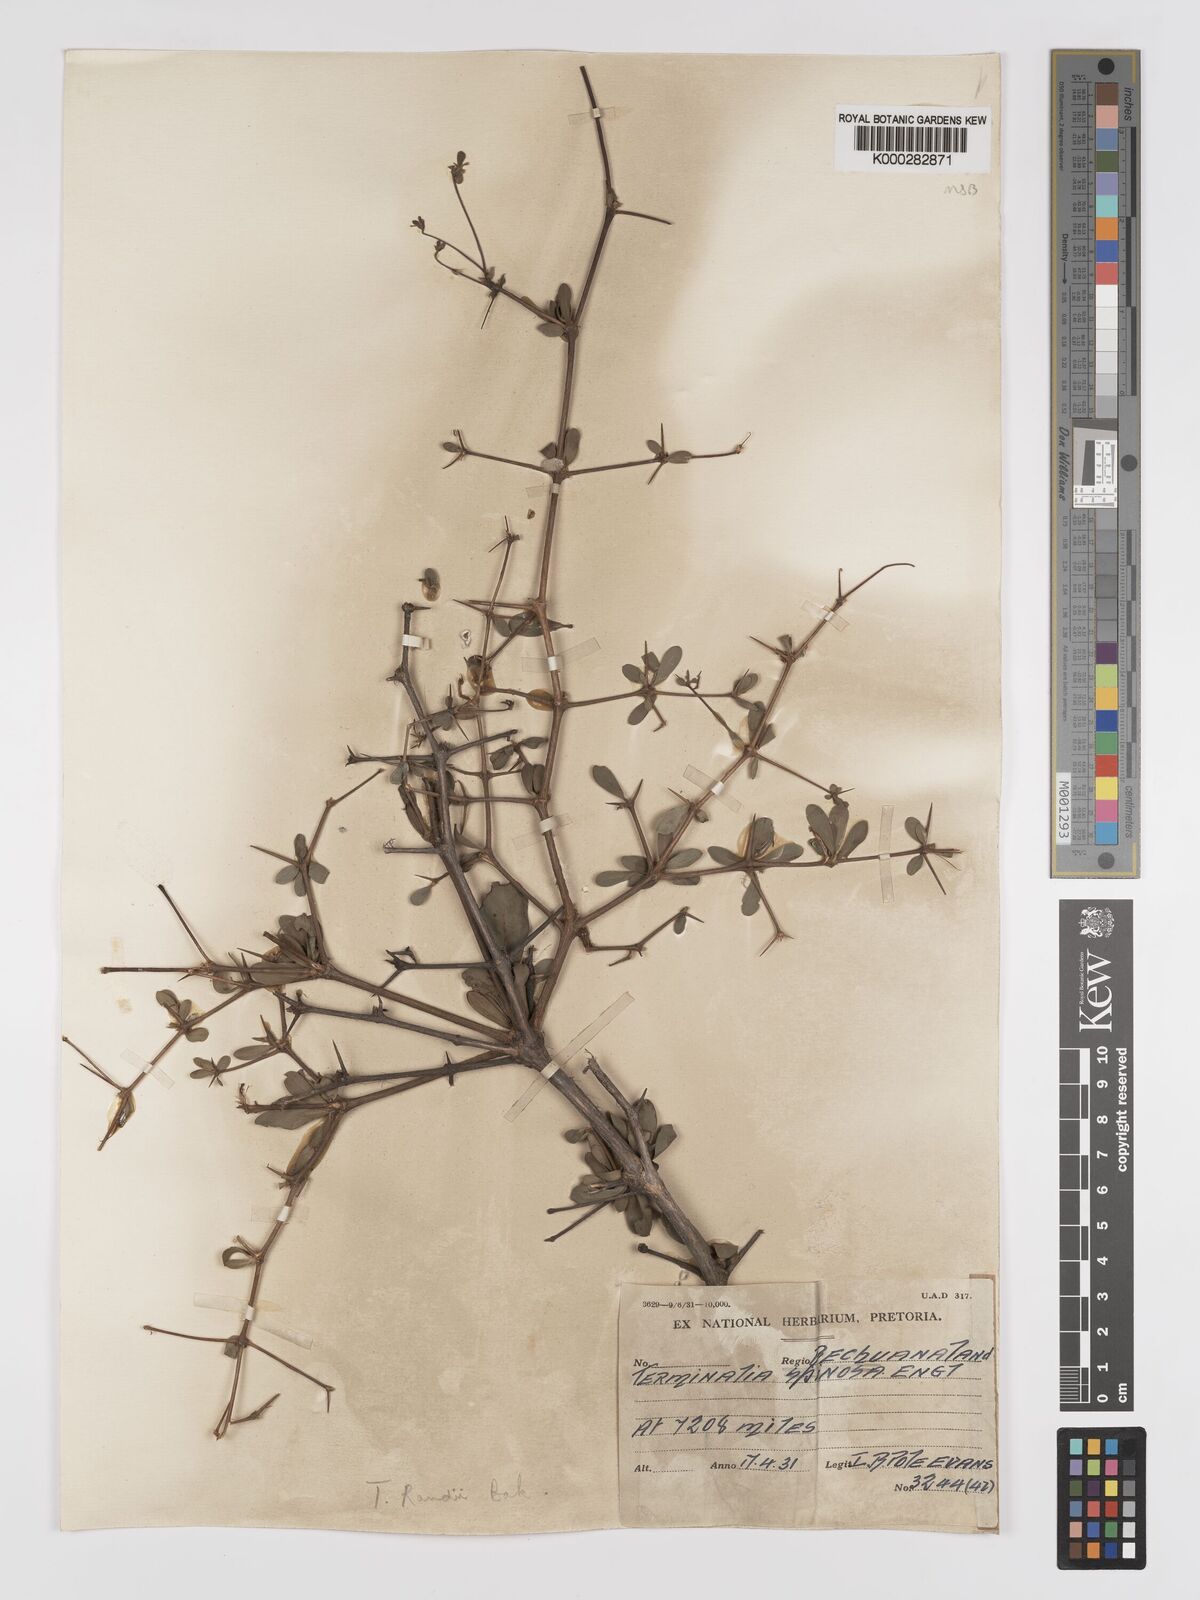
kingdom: Plantae
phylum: Tracheophyta
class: Magnoliopsida
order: Myrtales
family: Combretaceae
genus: Terminalia
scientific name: Terminalia randii
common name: Small-leaved terminalia
